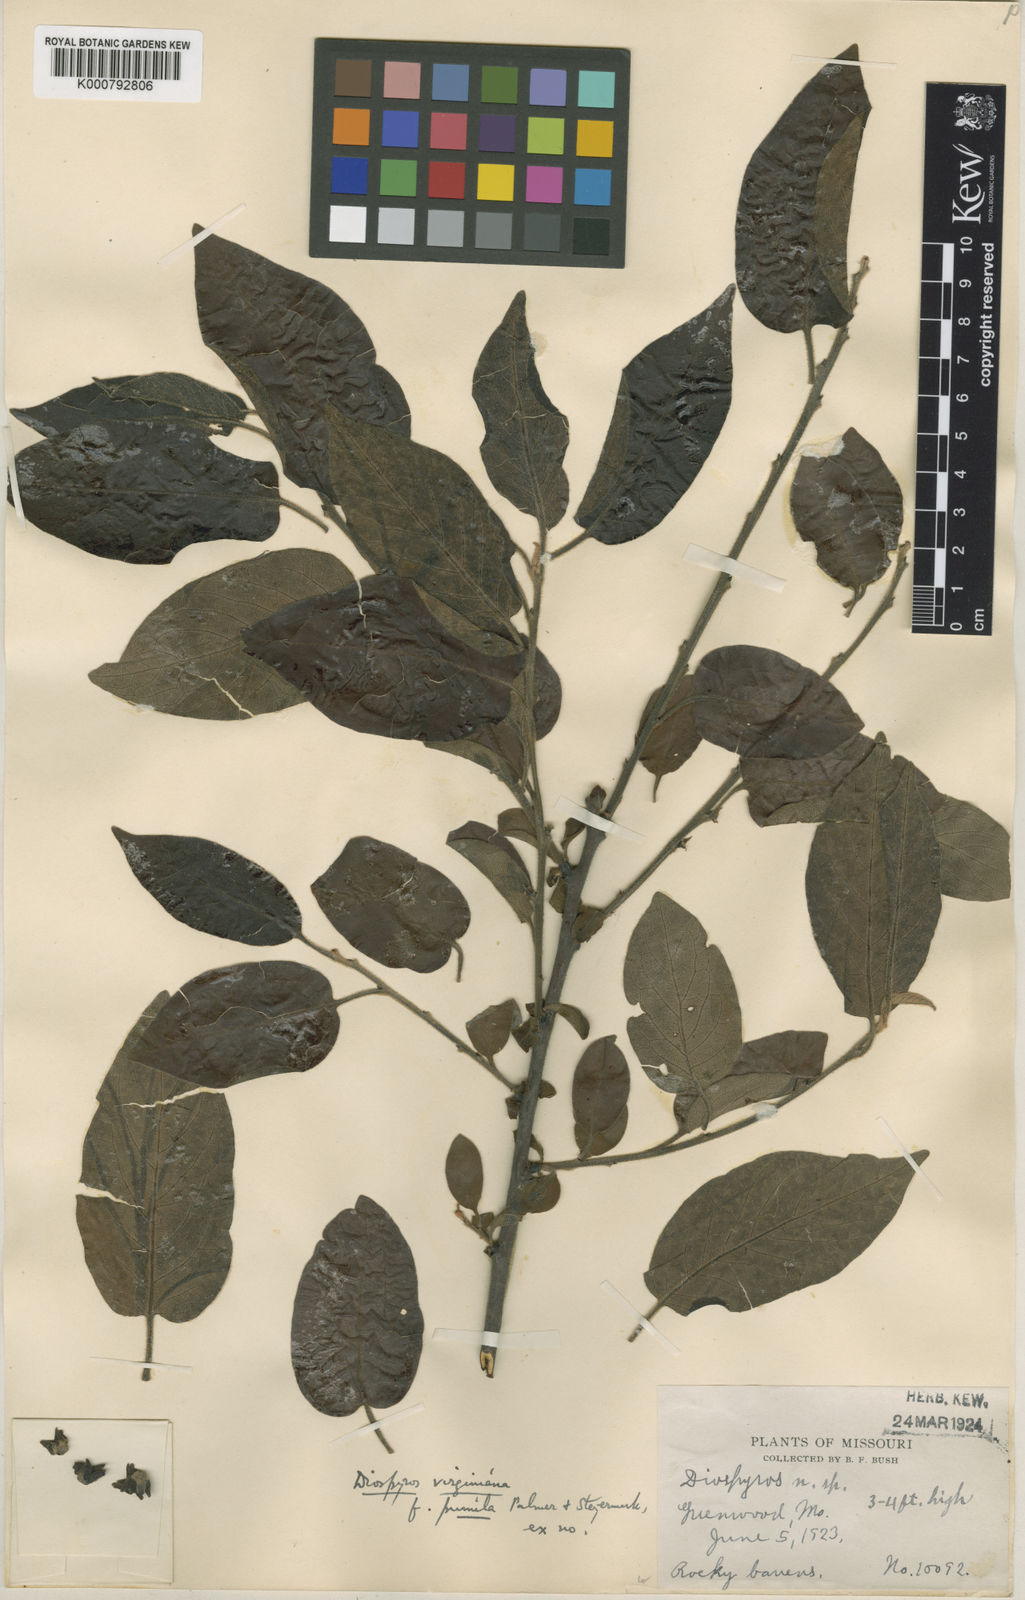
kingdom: Plantae
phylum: Tracheophyta
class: Magnoliopsida
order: Ericales
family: Ebenaceae
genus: Diospyros
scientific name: Diospyros virginiana
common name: Persimmon
